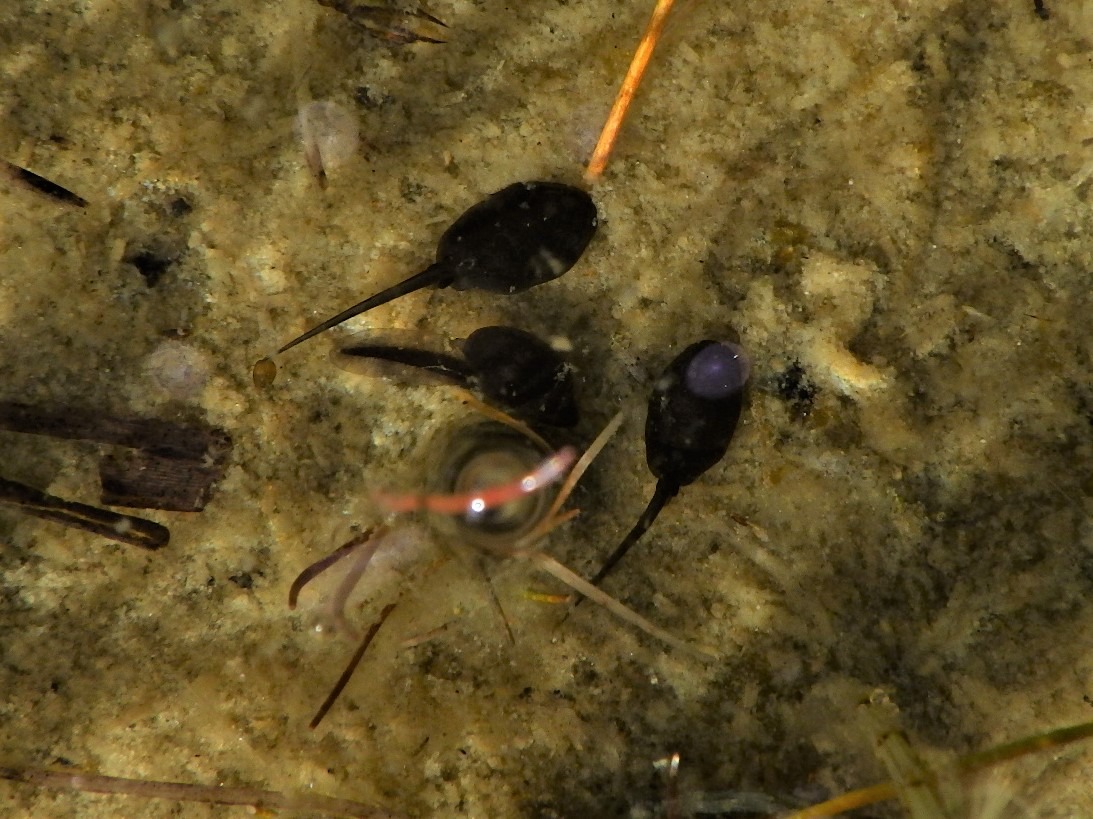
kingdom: Animalia
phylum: Chordata
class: Amphibia
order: Anura
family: Bufonidae
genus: Bufo
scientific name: Bufo bufo
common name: Skrubtudse
